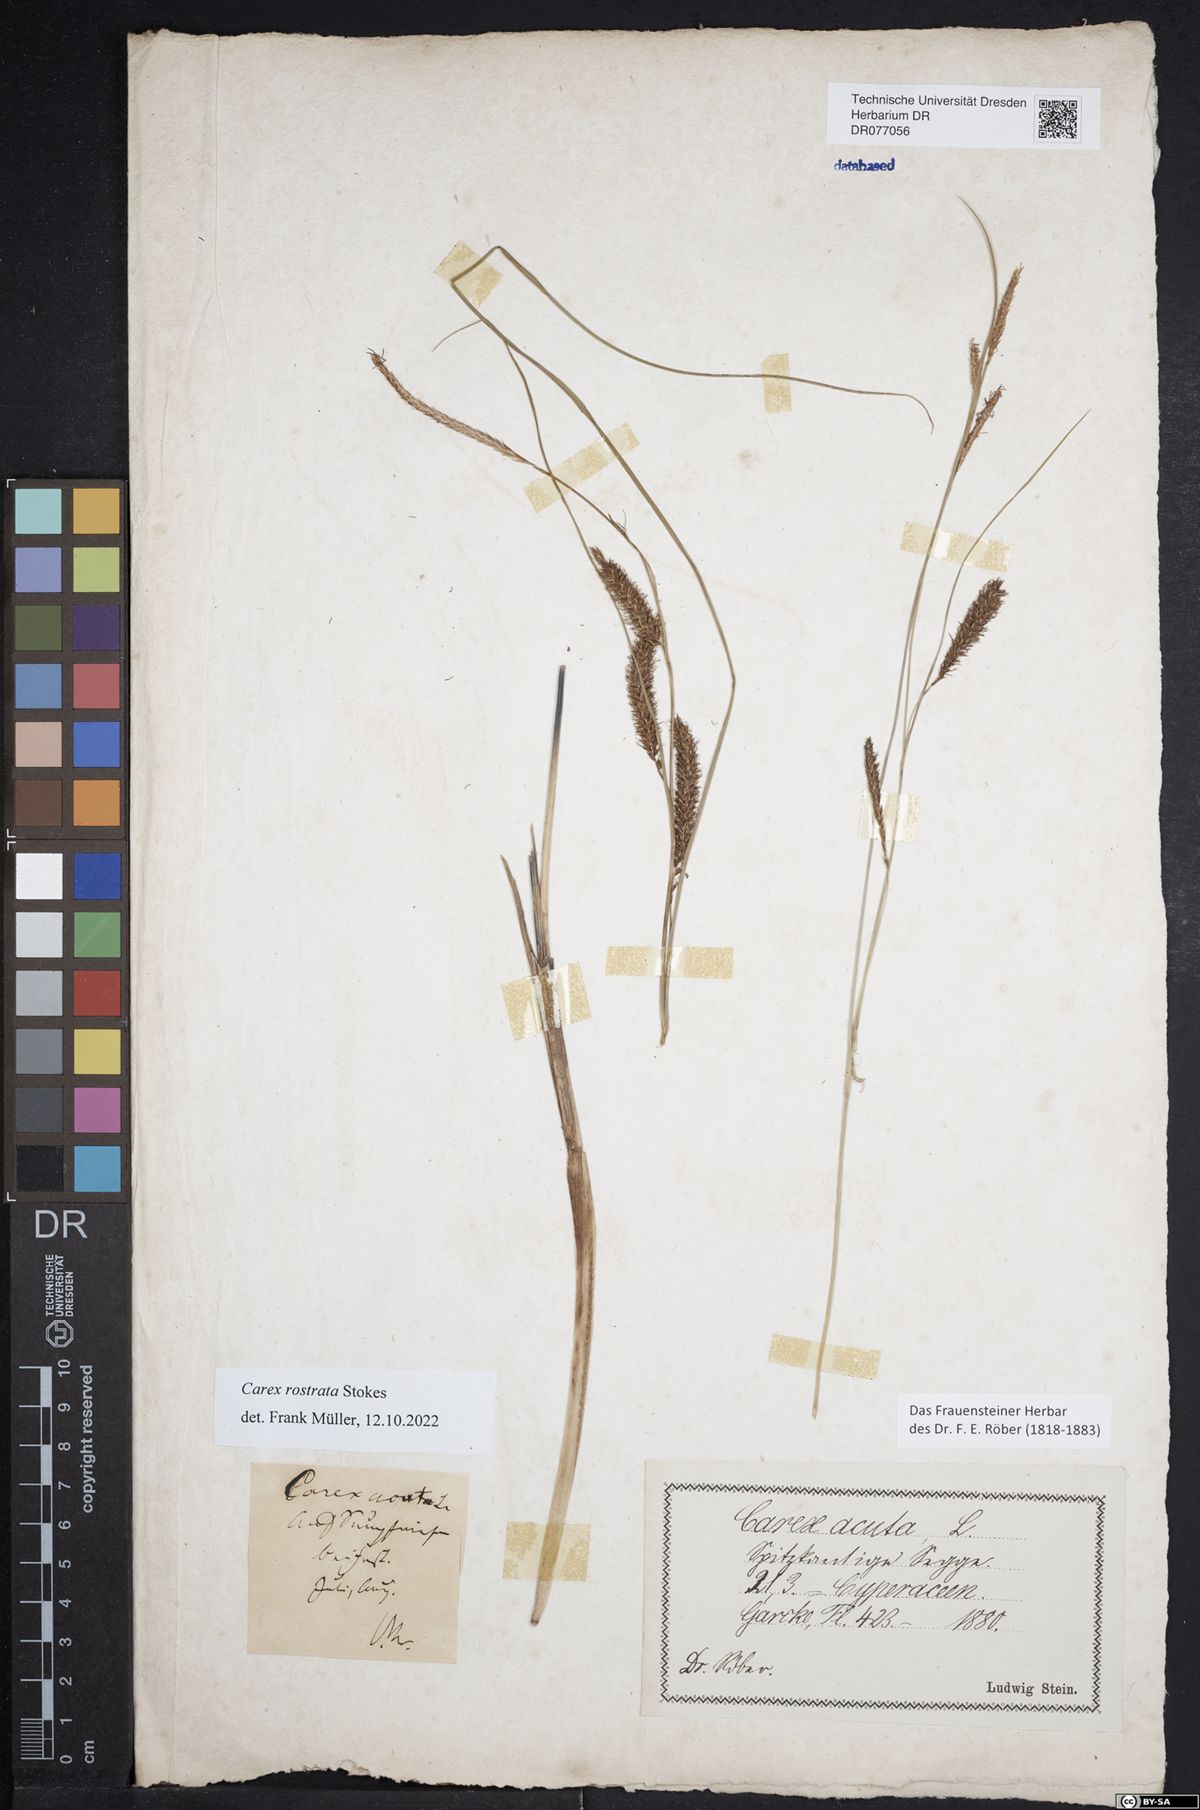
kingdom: Plantae
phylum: Tracheophyta
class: Liliopsida
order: Poales
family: Cyperaceae
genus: Carex
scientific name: Carex rostrata
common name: Bottle sedge
